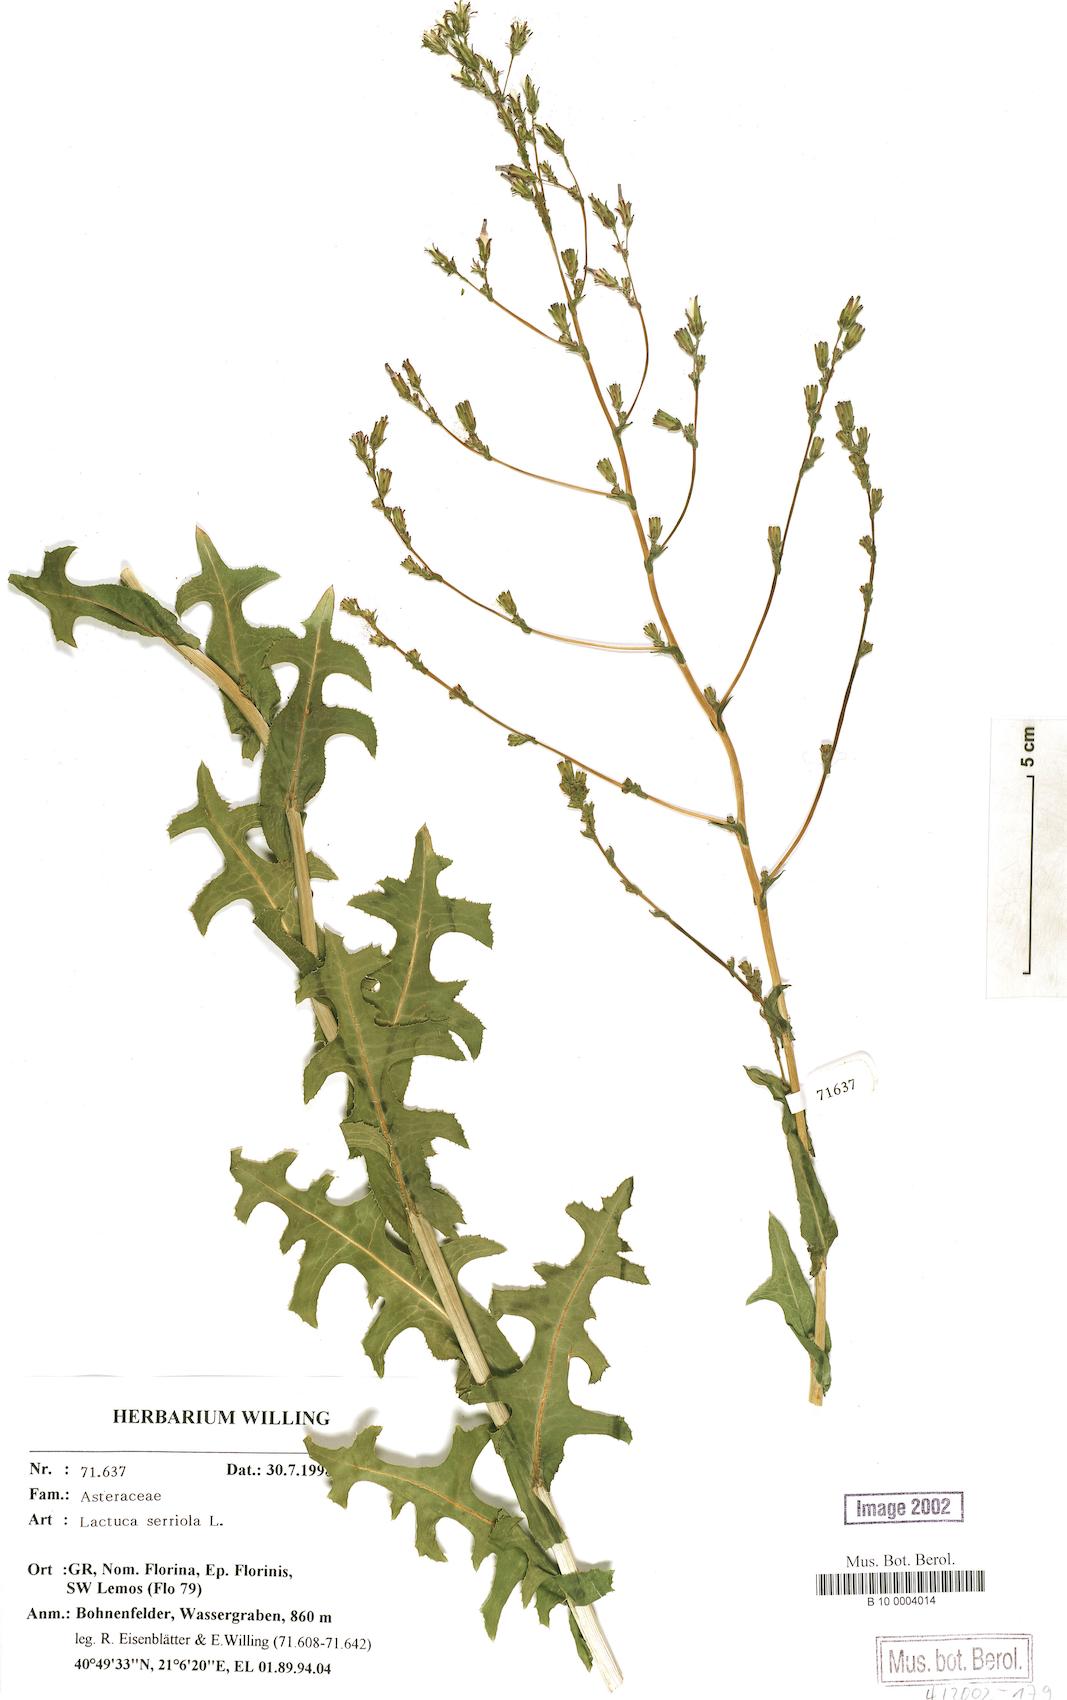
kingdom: Plantae
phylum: Tracheophyta
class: Magnoliopsida
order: Asterales
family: Asteraceae
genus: Lactuca
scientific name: Lactuca serriola
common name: Prickly lettuce
